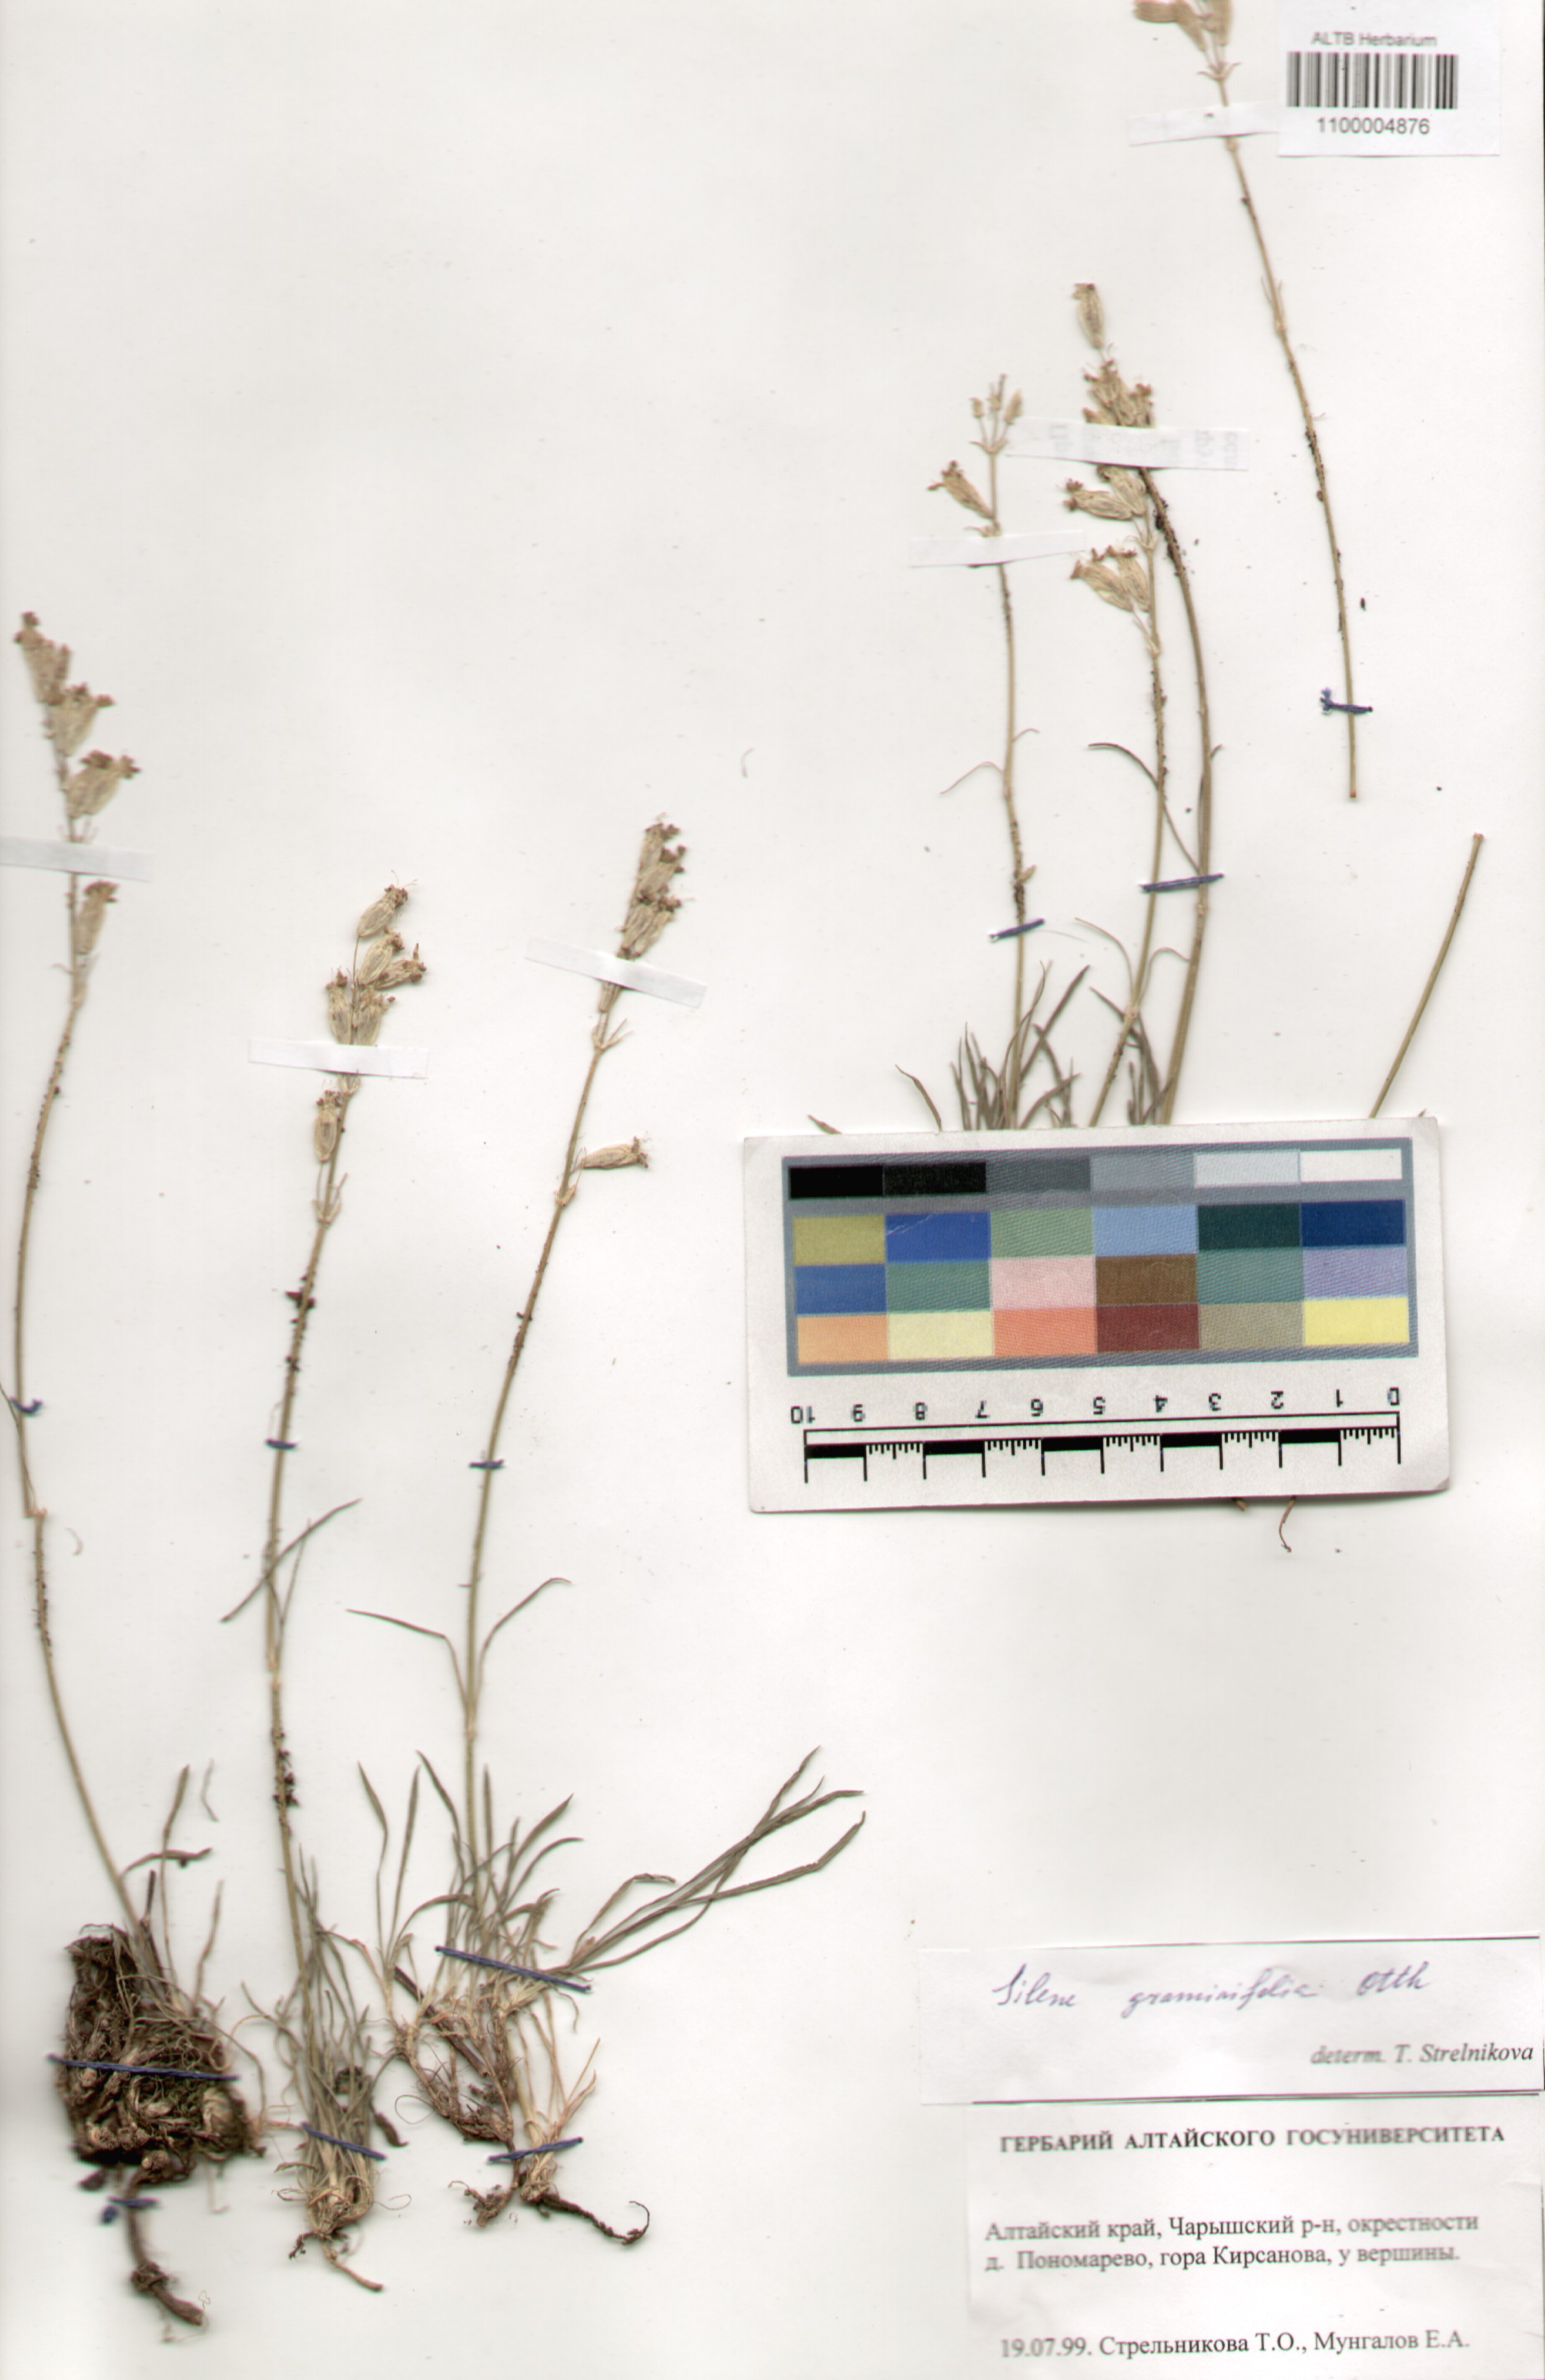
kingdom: Plantae
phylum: Tracheophyta
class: Magnoliopsida
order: Caryophyllales
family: Caryophyllaceae
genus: Silene
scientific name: Silene graminifolia
